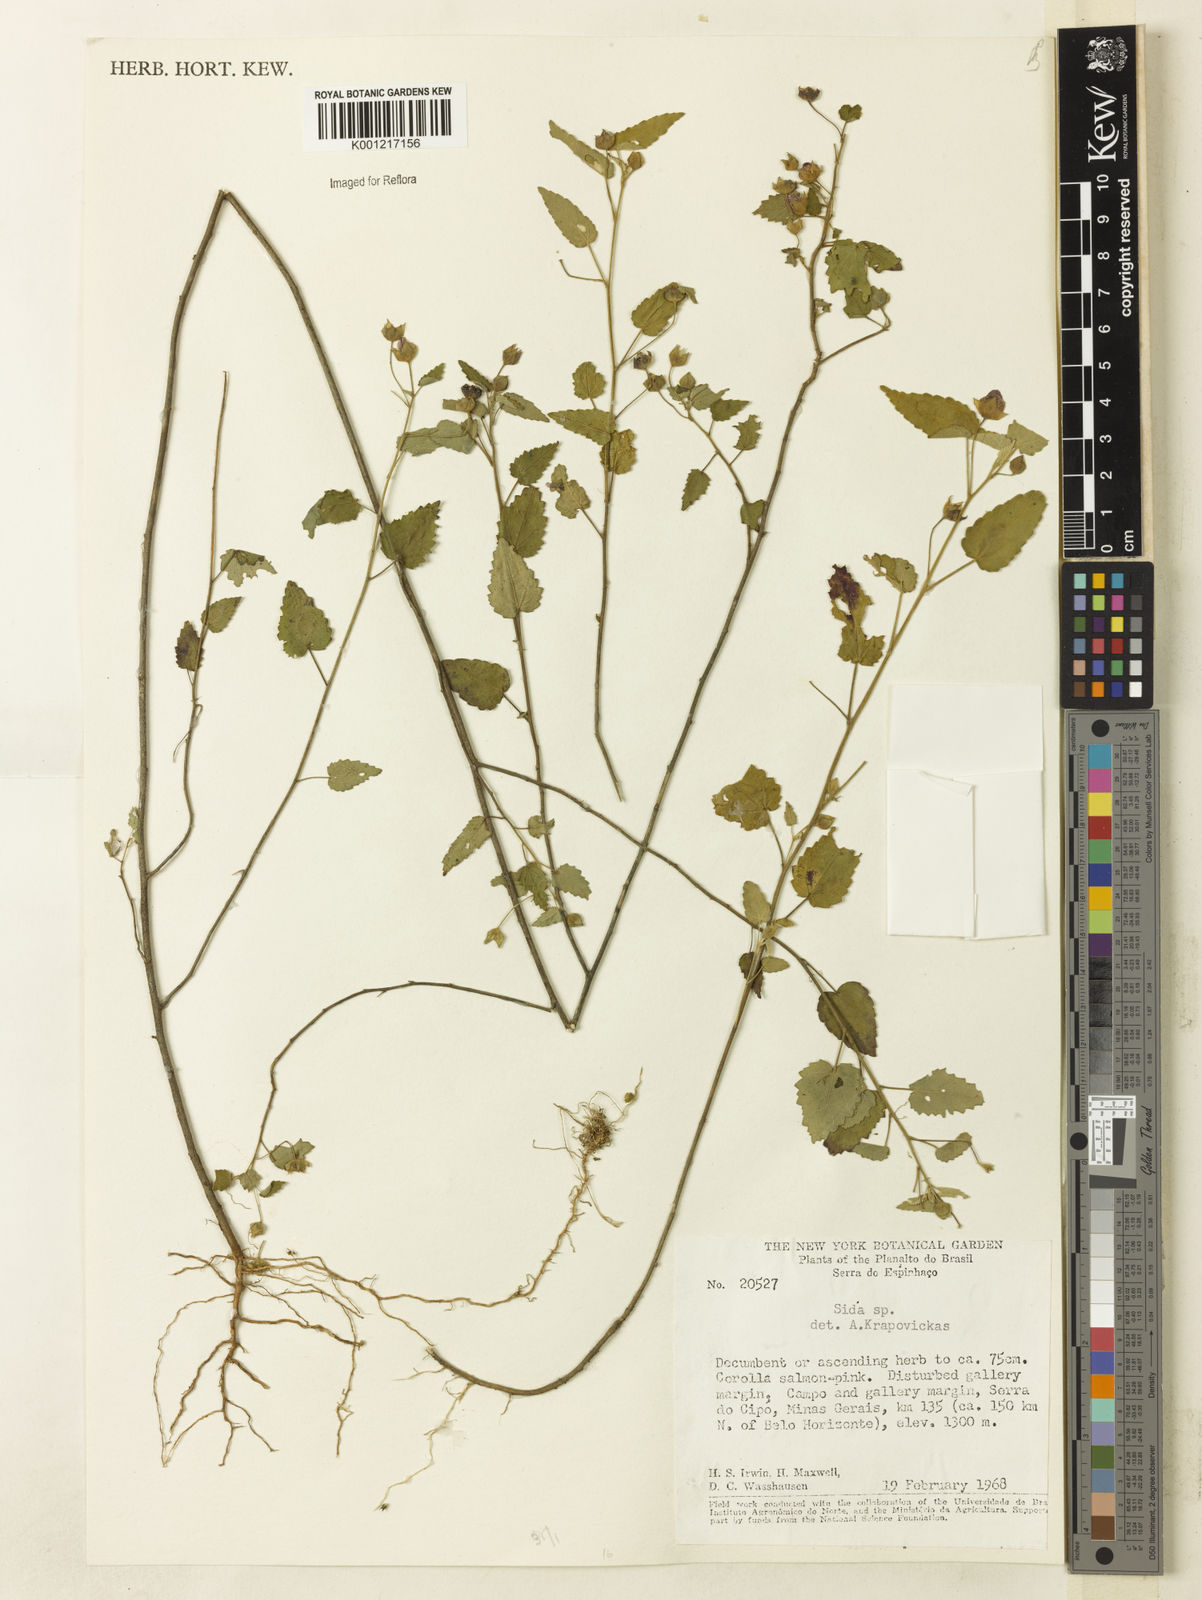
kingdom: Plantae
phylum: Tracheophyta
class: Magnoliopsida
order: Malvales
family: Malvaceae
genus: Sida
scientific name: Sida
